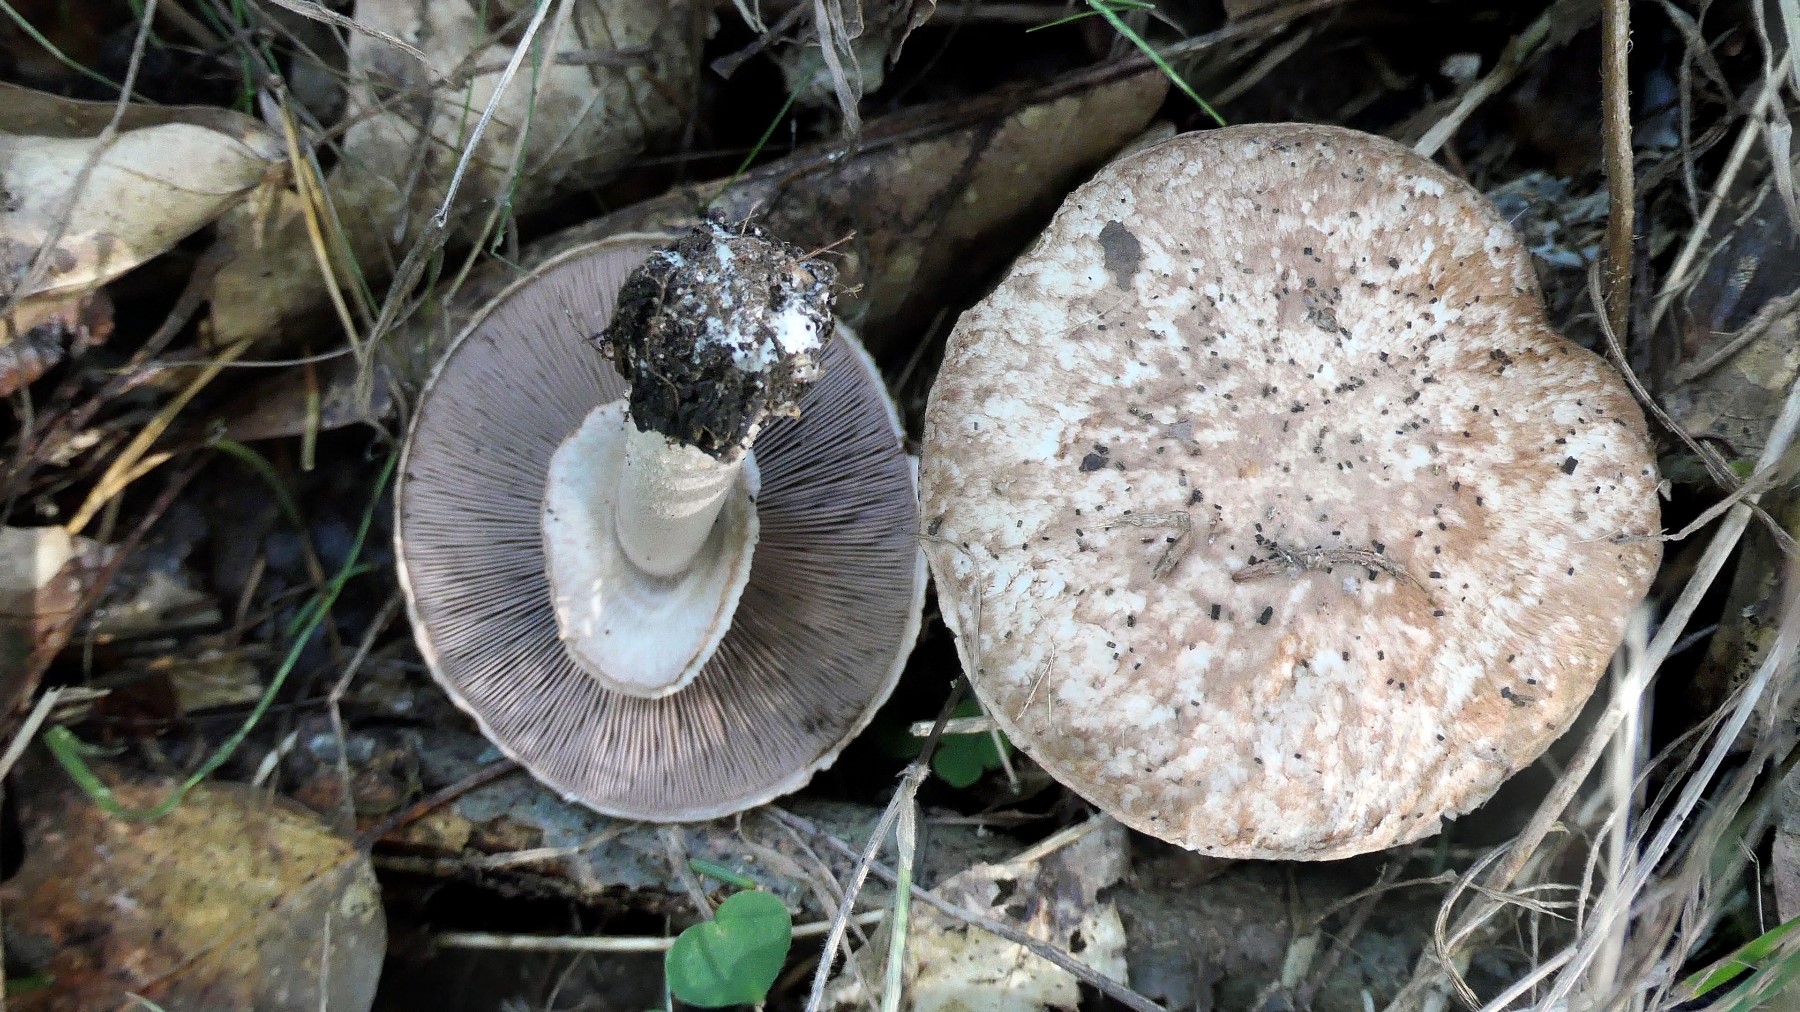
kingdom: Fungi
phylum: Basidiomycota
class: Agaricomycetes
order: Agaricales
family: Agaricaceae
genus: Agaricus
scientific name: Agaricus impudicus
